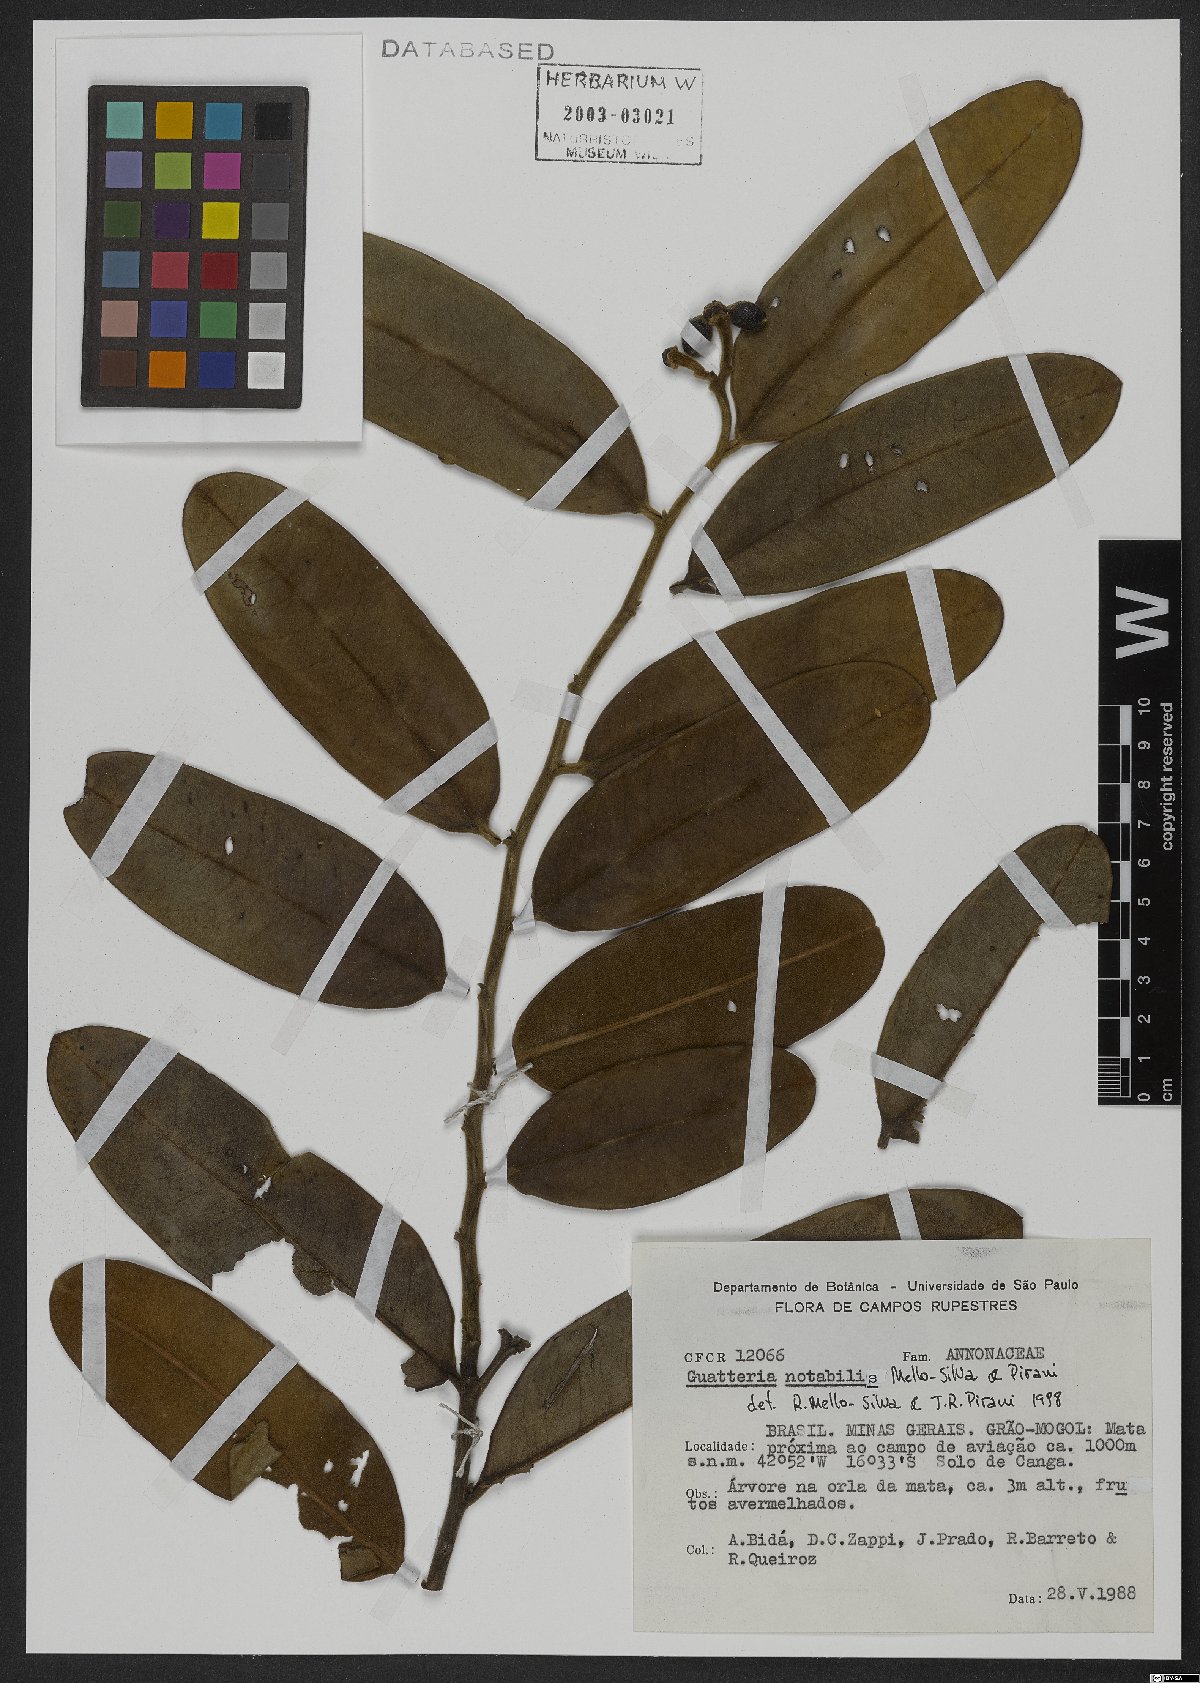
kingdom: Plantae
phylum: Tracheophyta
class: Magnoliopsida
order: Magnoliales
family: Annonaceae
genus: Guatteria
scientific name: Guatteria notabilis
